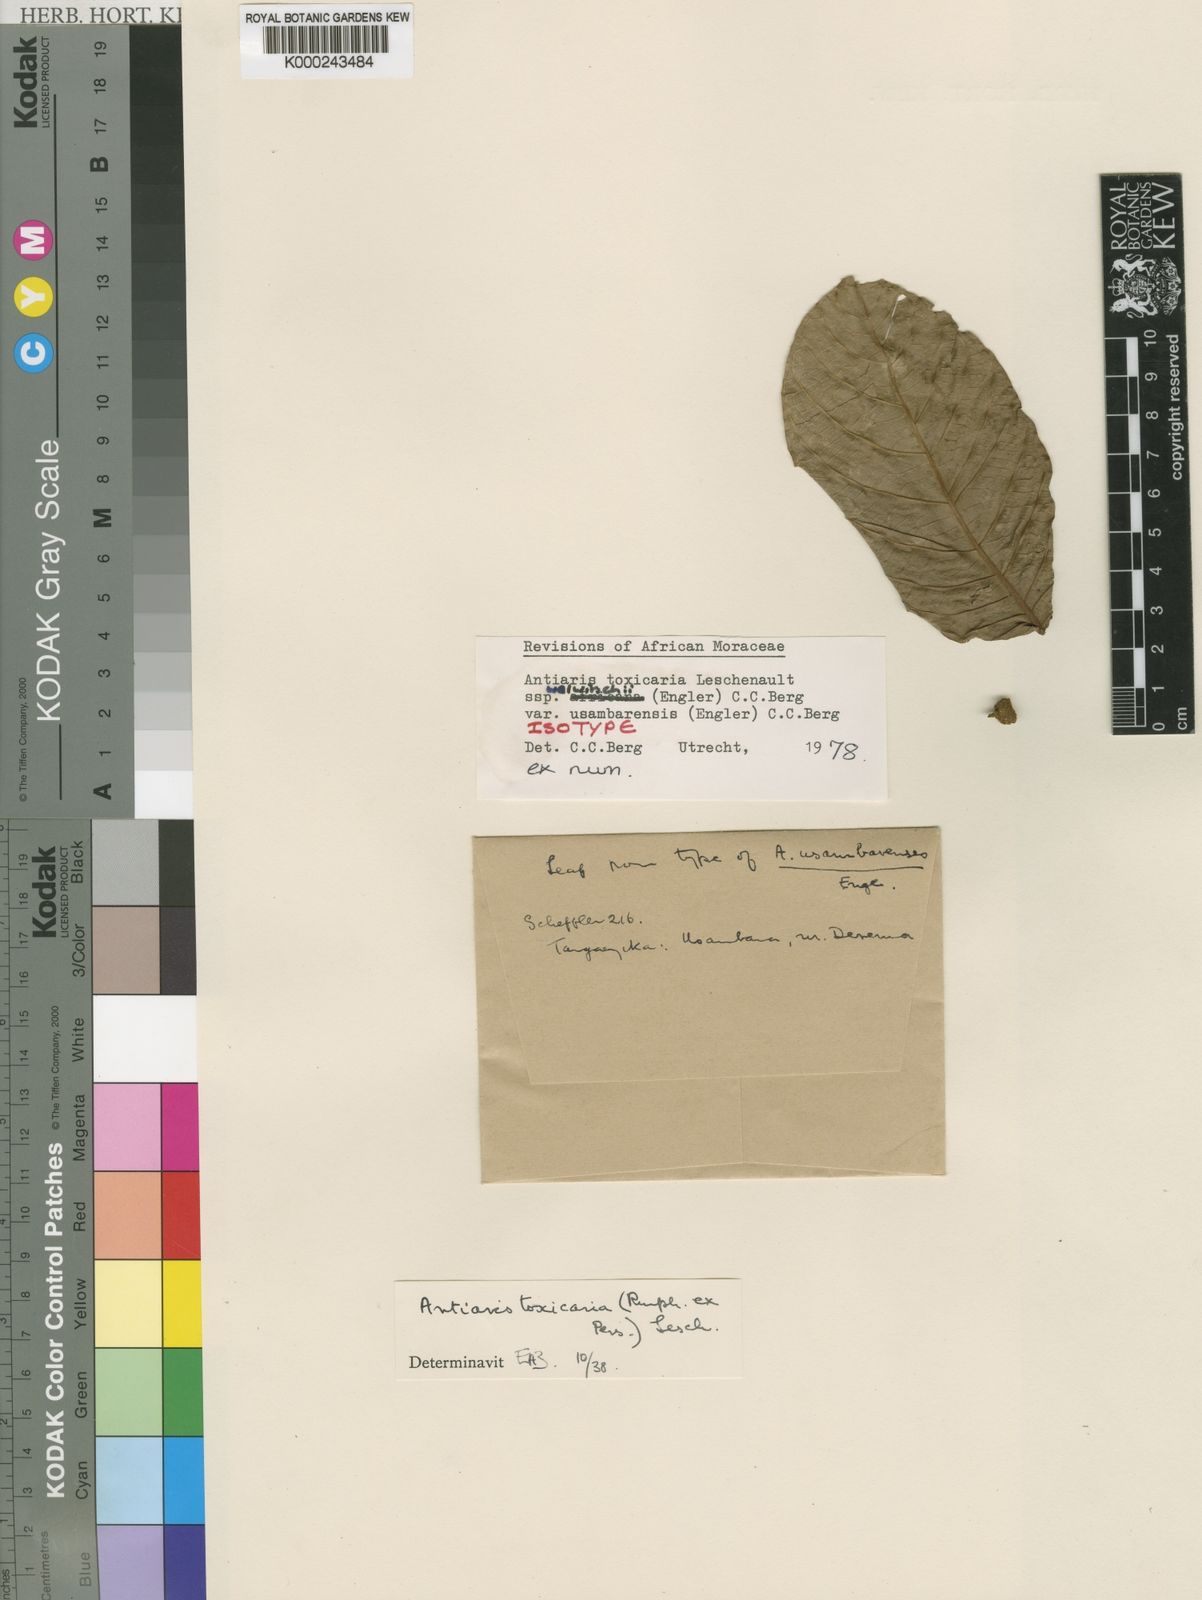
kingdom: Plantae
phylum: Tracheophyta
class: Magnoliopsida
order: Rosales
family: Moraceae
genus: Antiaris
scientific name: Antiaris toxicaria
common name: Sackingtree
